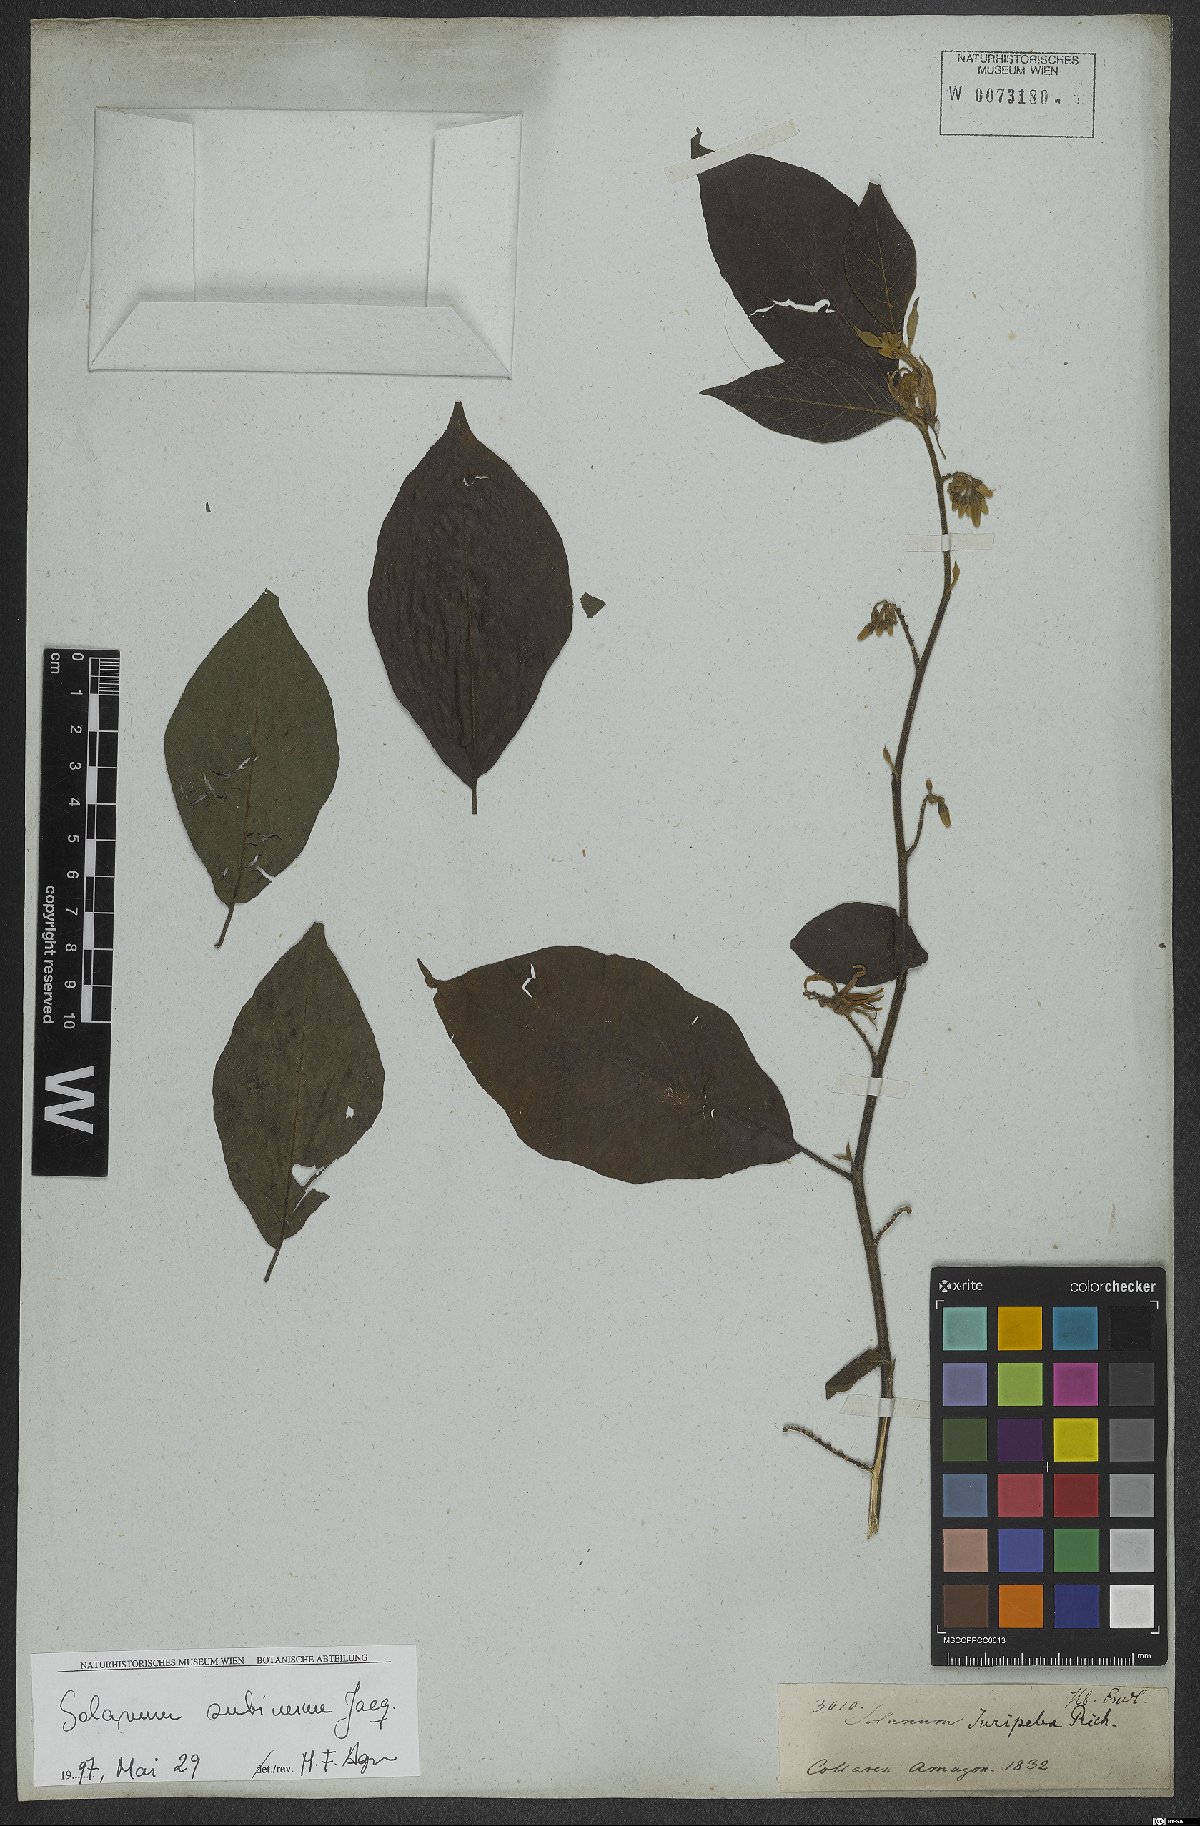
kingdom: Plantae
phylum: Tracheophyta
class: Magnoliopsida
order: Solanales
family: Solanaceae
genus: Solanum
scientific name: Solanum subinerme
